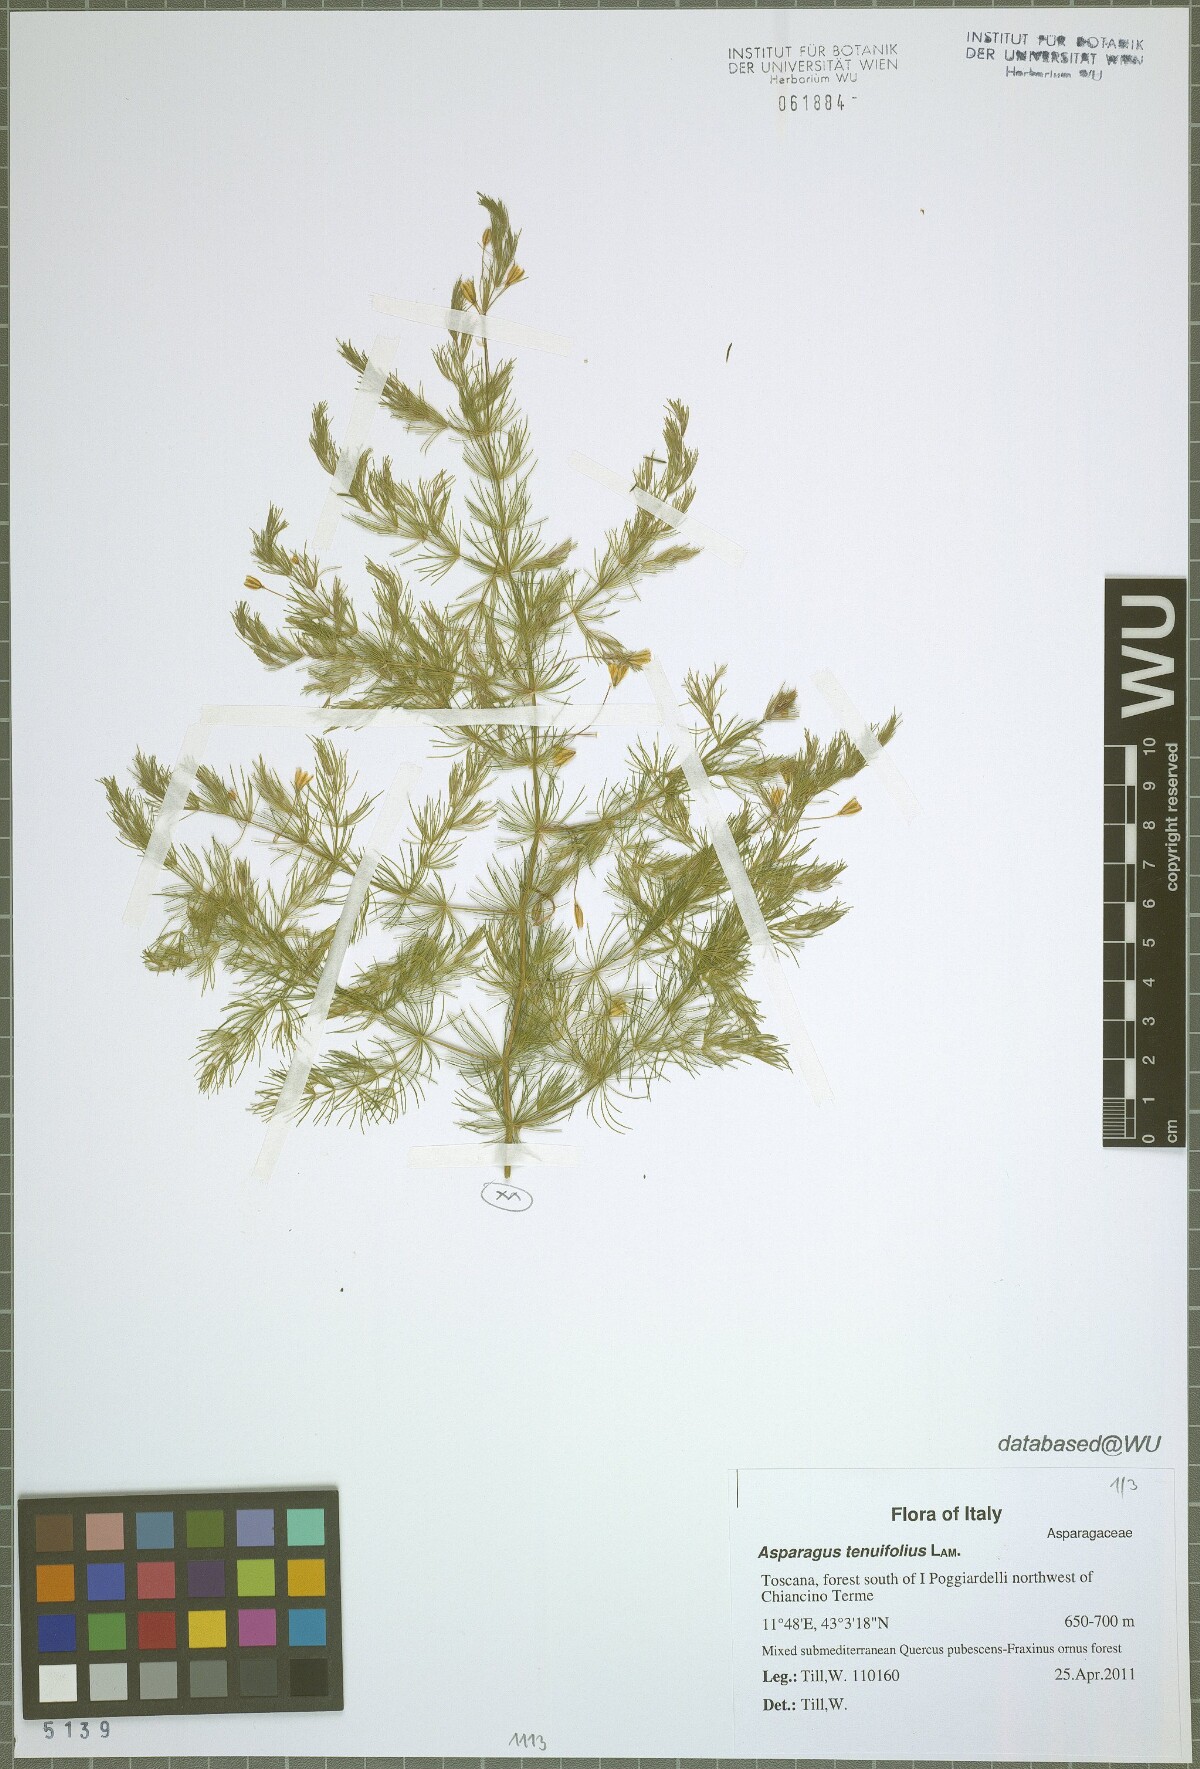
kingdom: Plantae
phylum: Tracheophyta
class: Liliopsida
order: Asparagales
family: Asparagaceae
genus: Asparagus
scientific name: Asparagus tenuifolius
